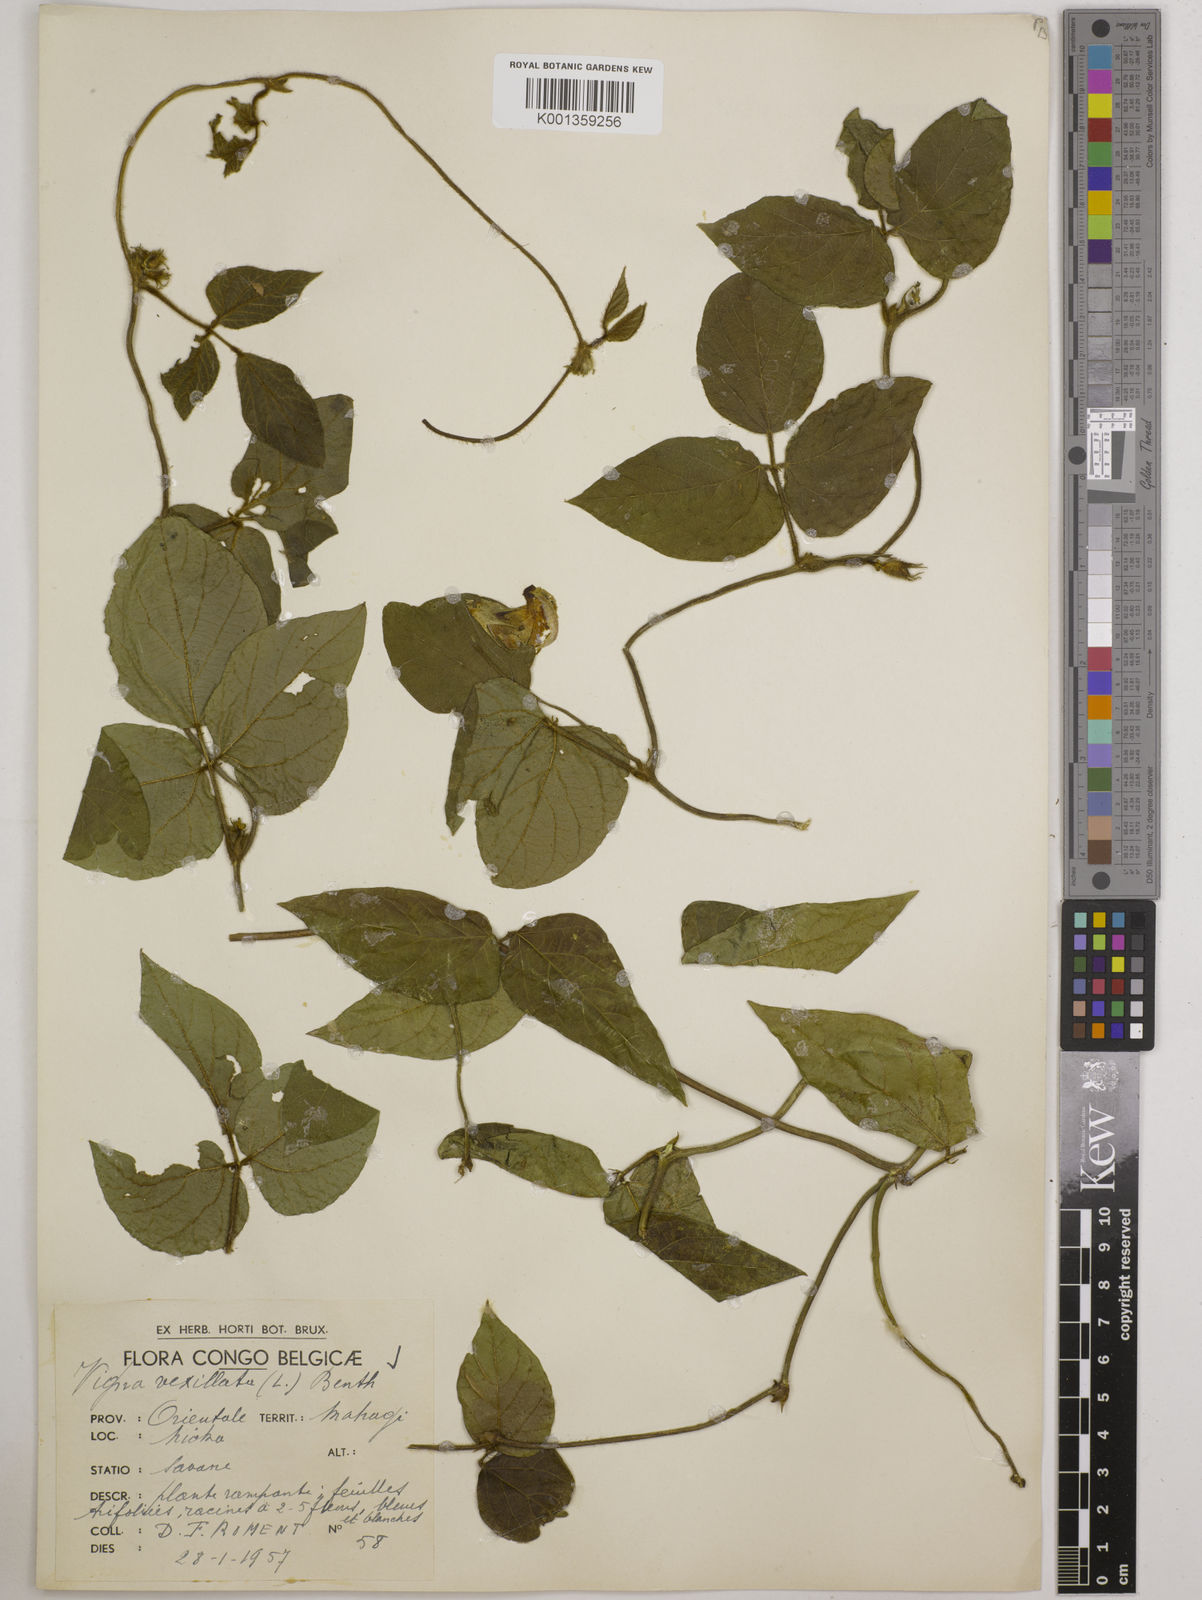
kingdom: Plantae
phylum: Tracheophyta
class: Magnoliopsida
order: Fabales
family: Fabaceae
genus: Vigna
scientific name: Vigna vexillata
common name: Zombi pea
